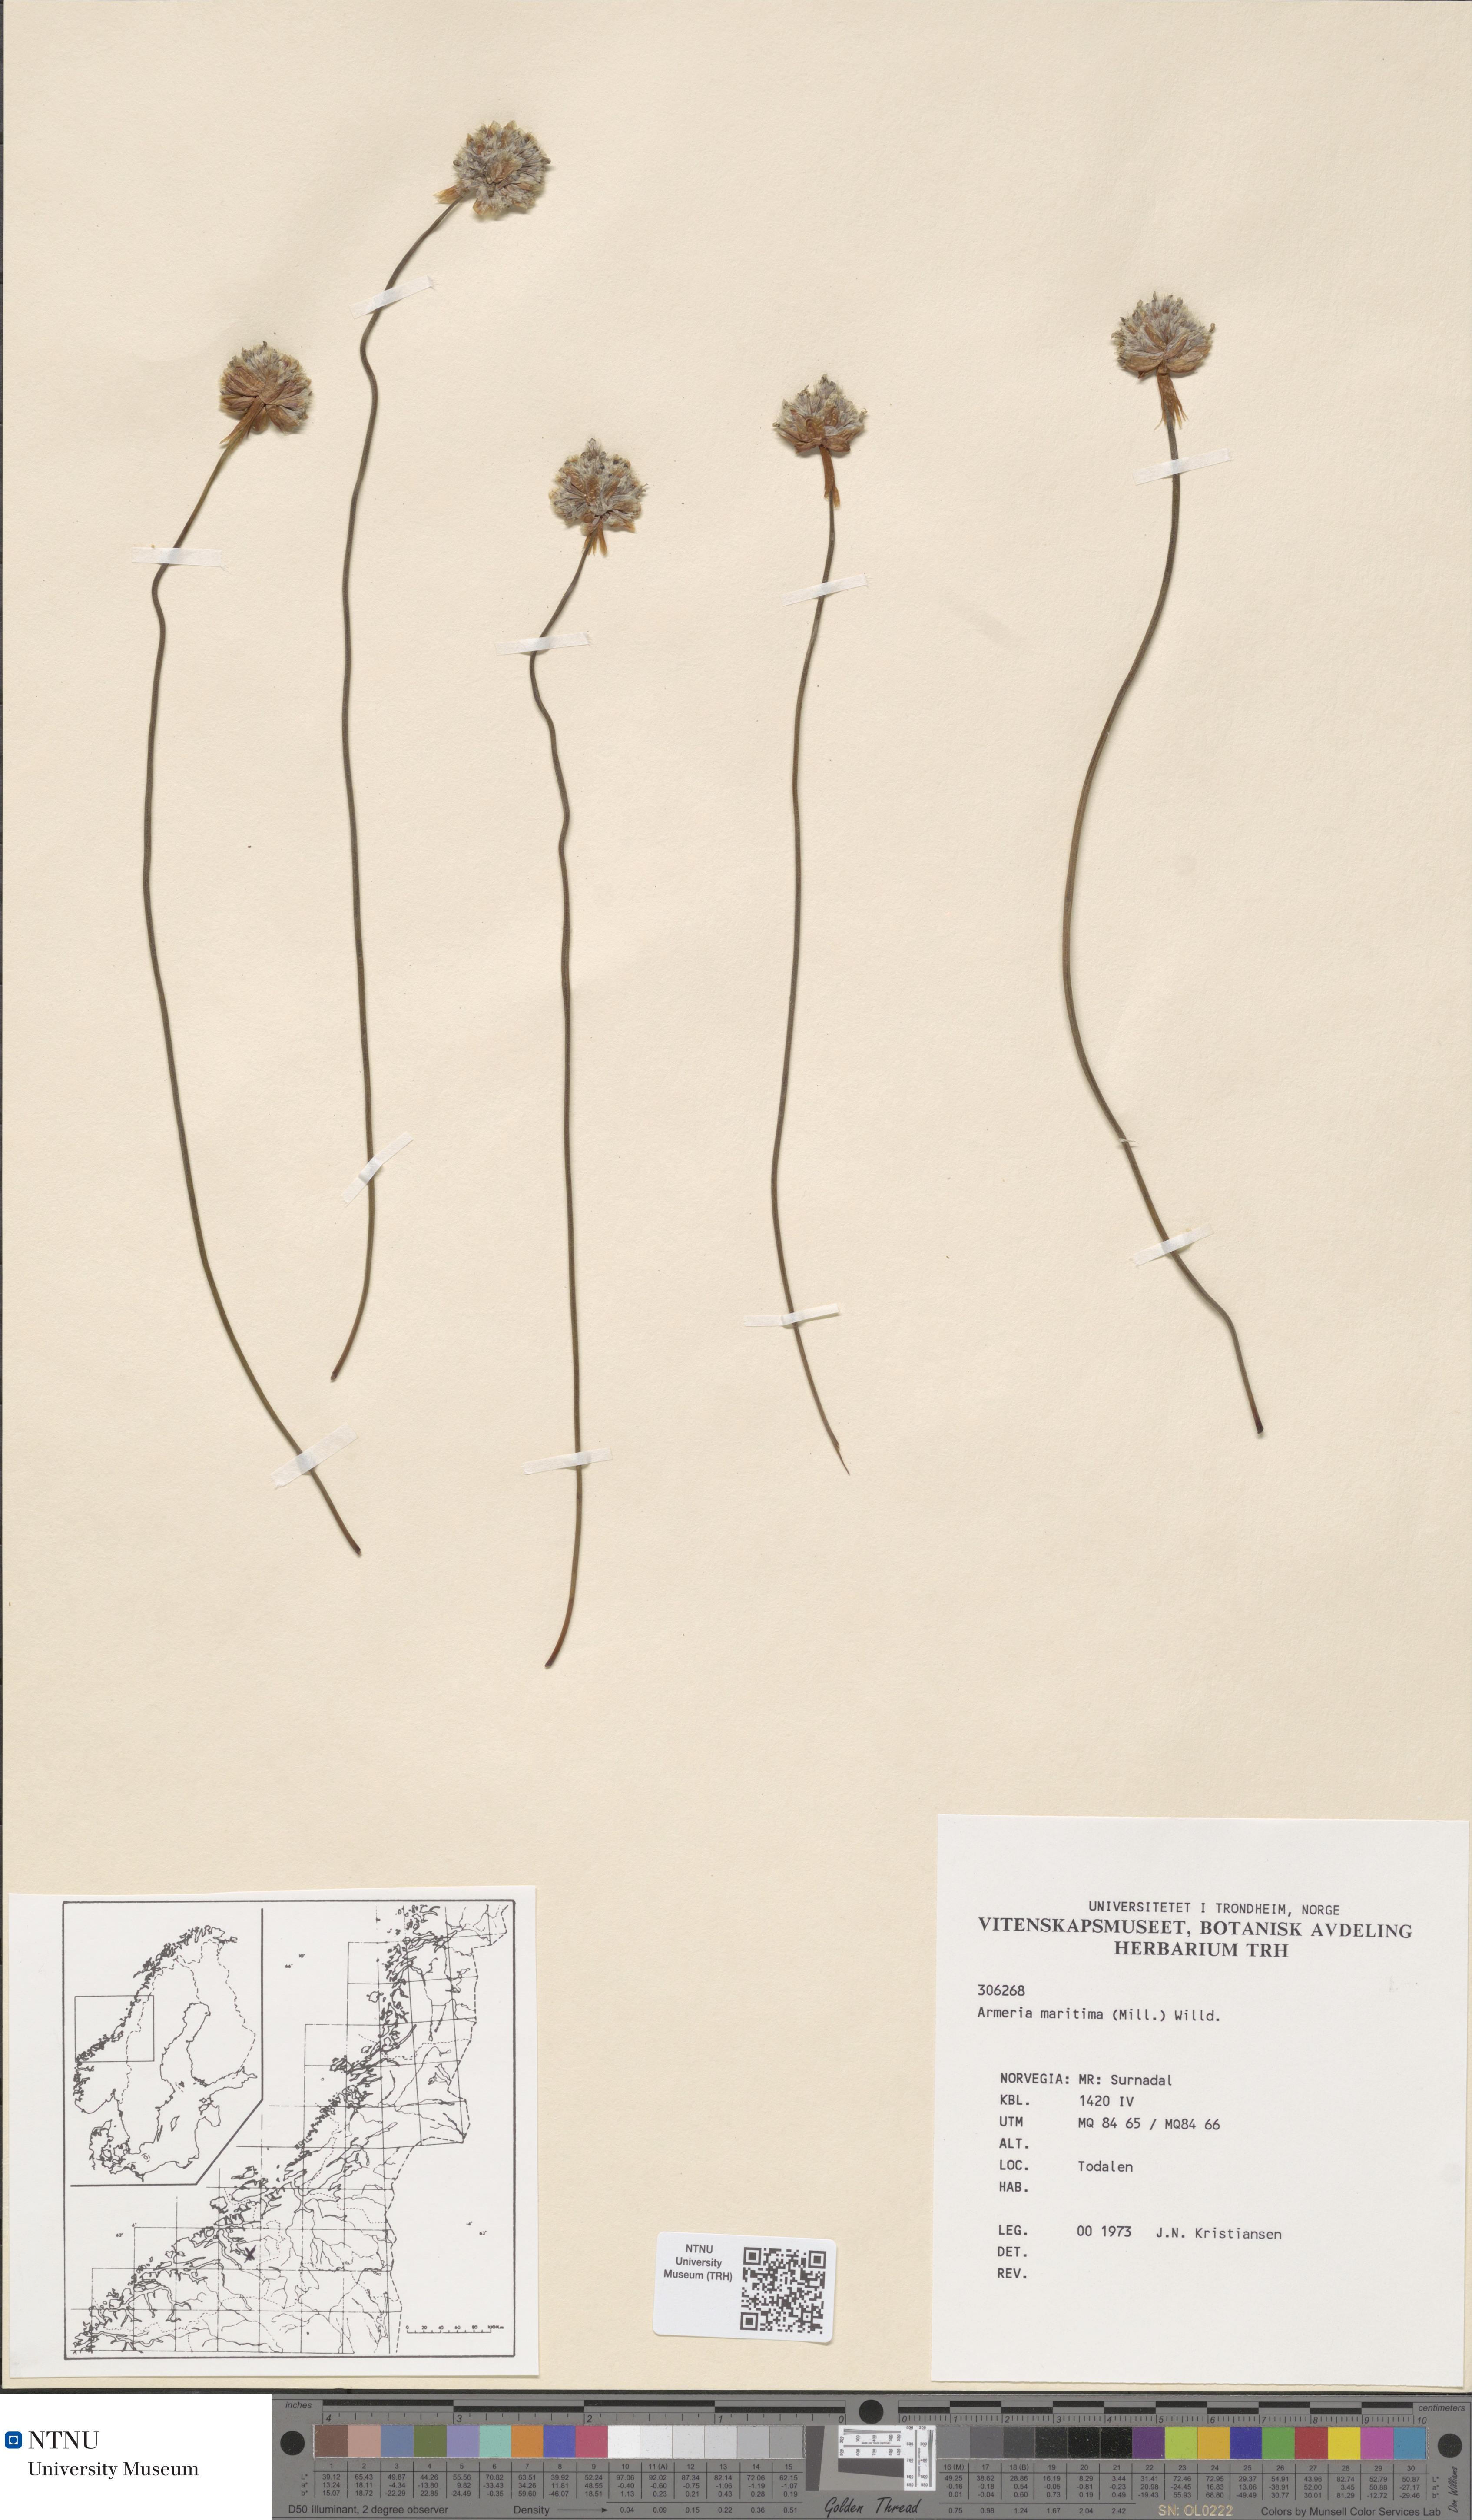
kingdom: Plantae
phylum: Tracheophyta
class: Magnoliopsida
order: Caryophyllales
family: Plumbaginaceae
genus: Armeria
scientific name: Armeria maritima
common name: Thrift
